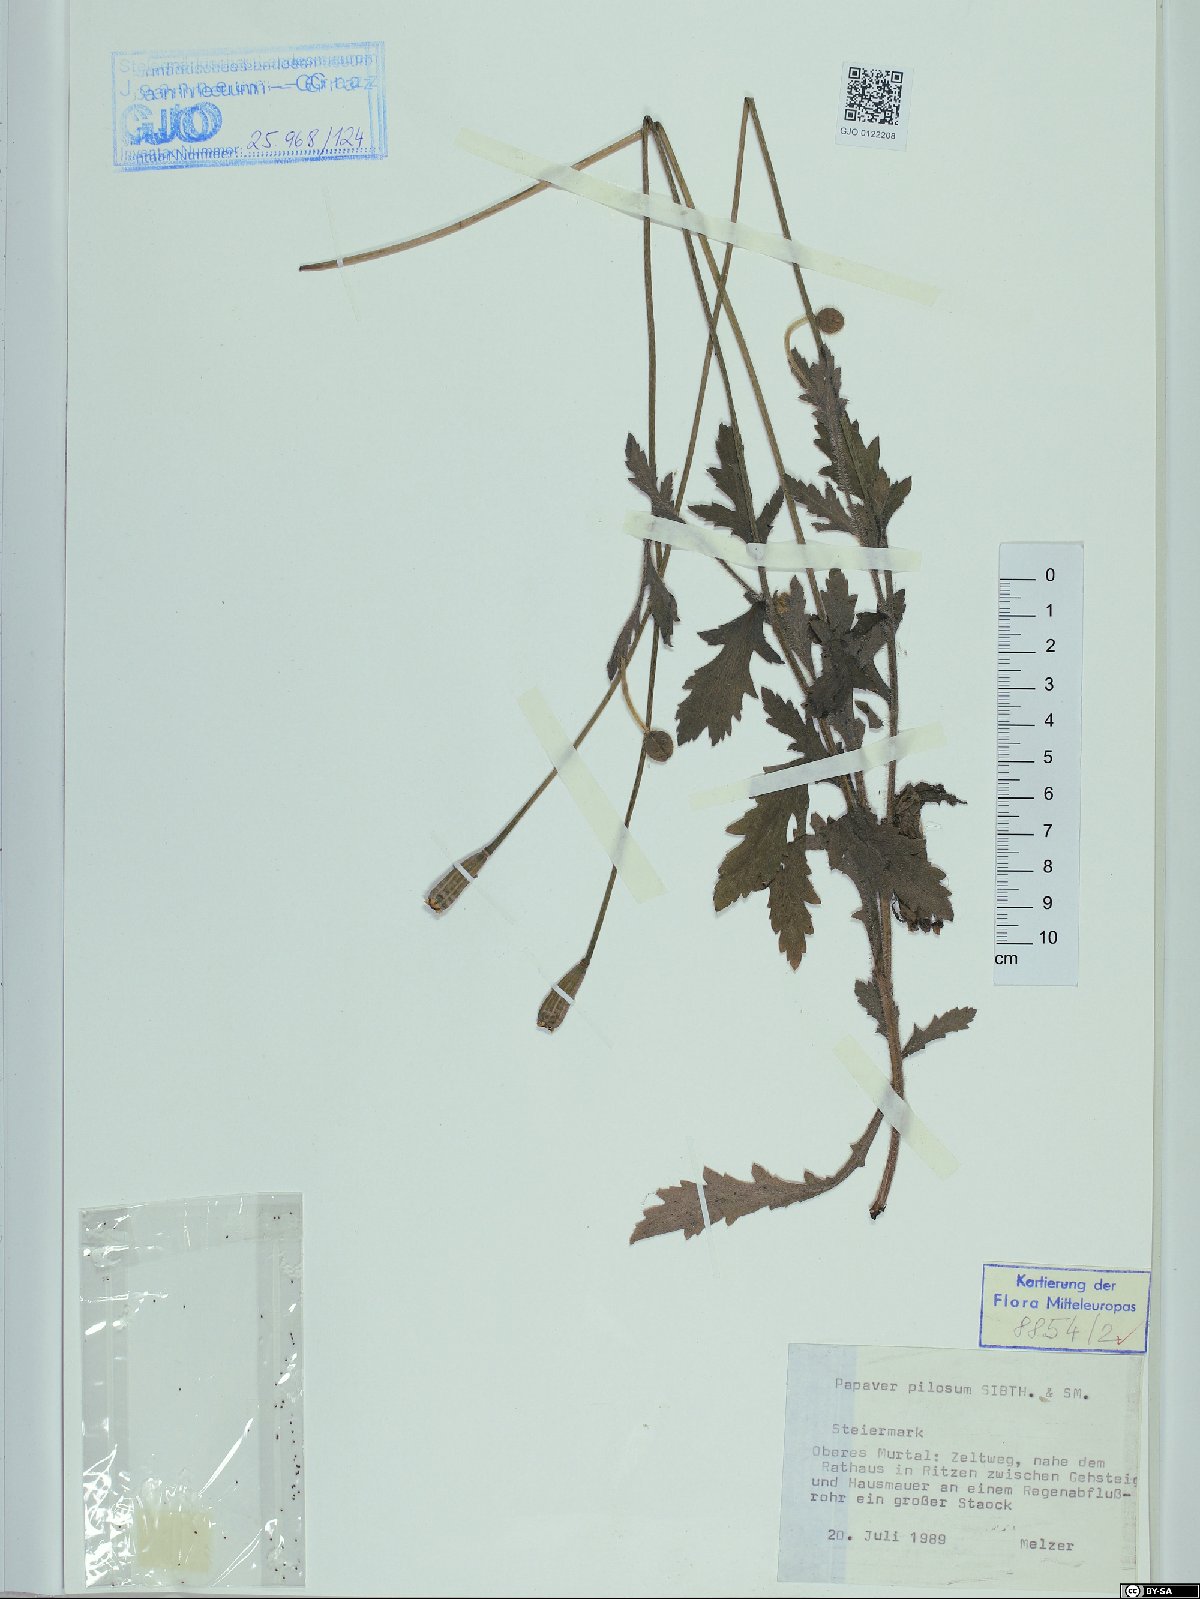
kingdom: Plantae
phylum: Tracheophyta
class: Magnoliopsida
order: Ranunculales
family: Papaveraceae
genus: Papaver
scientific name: Papaver pilosum
